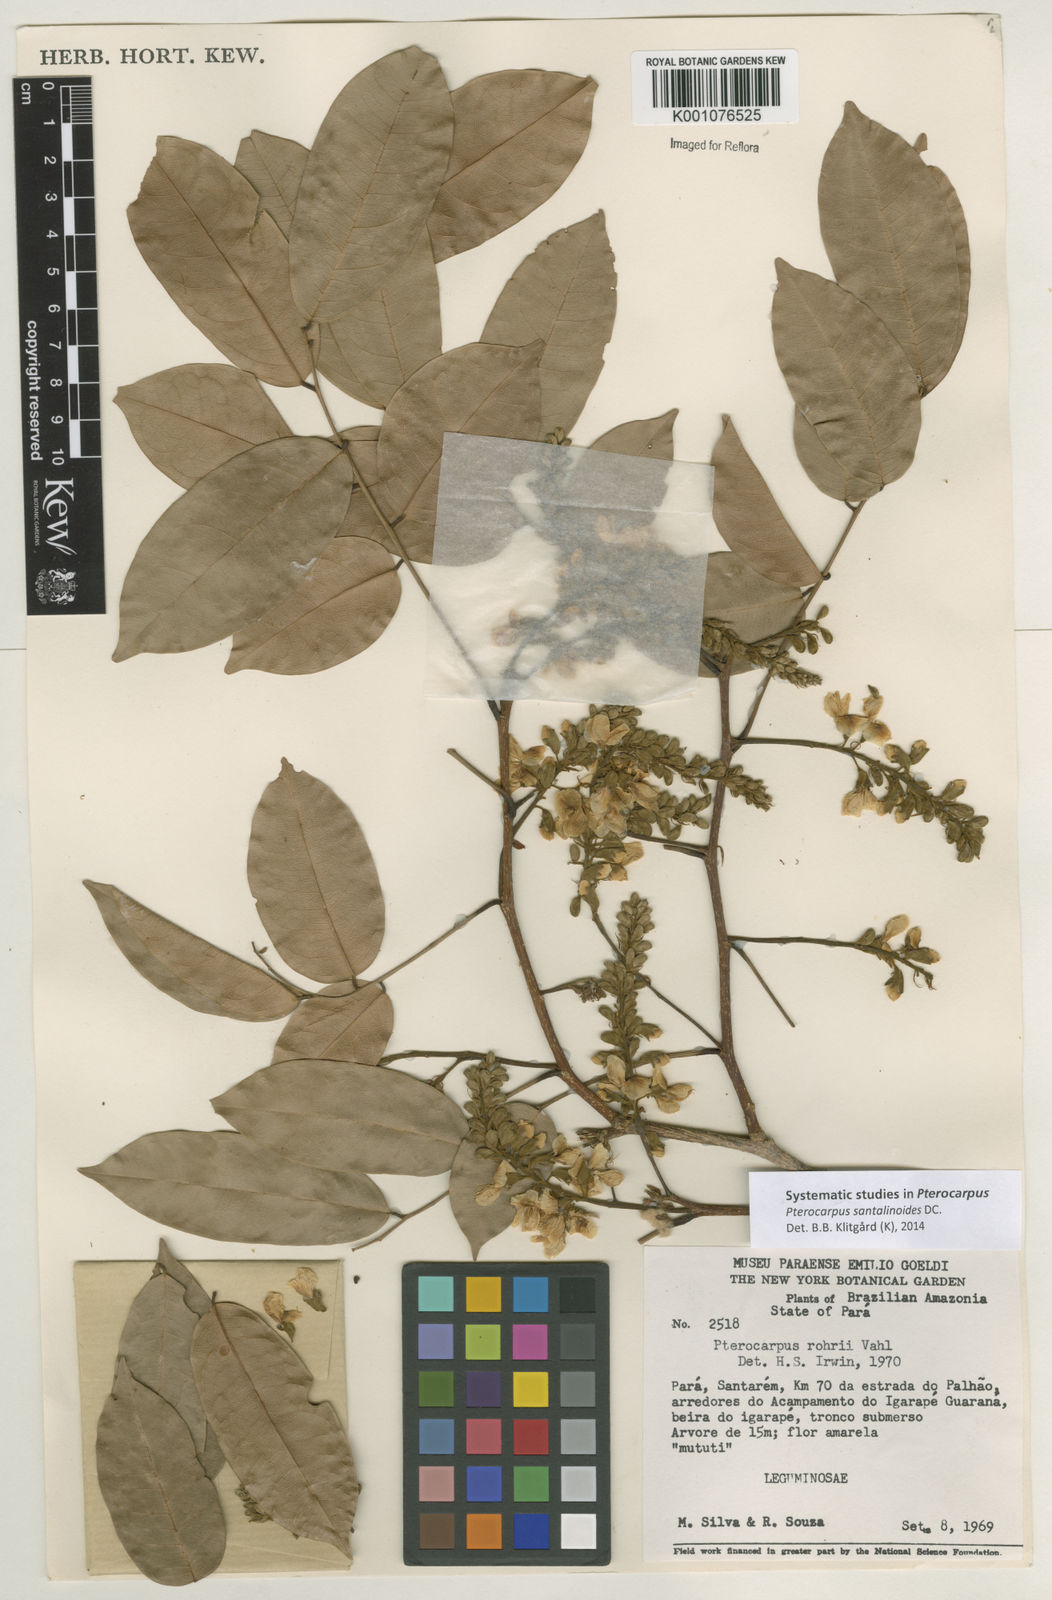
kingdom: Plantae
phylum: Tracheophyta
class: Magnoliopsida
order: Fabales
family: Fabaceae
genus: Pterocarpus
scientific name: Pterocarpus santalinoides
